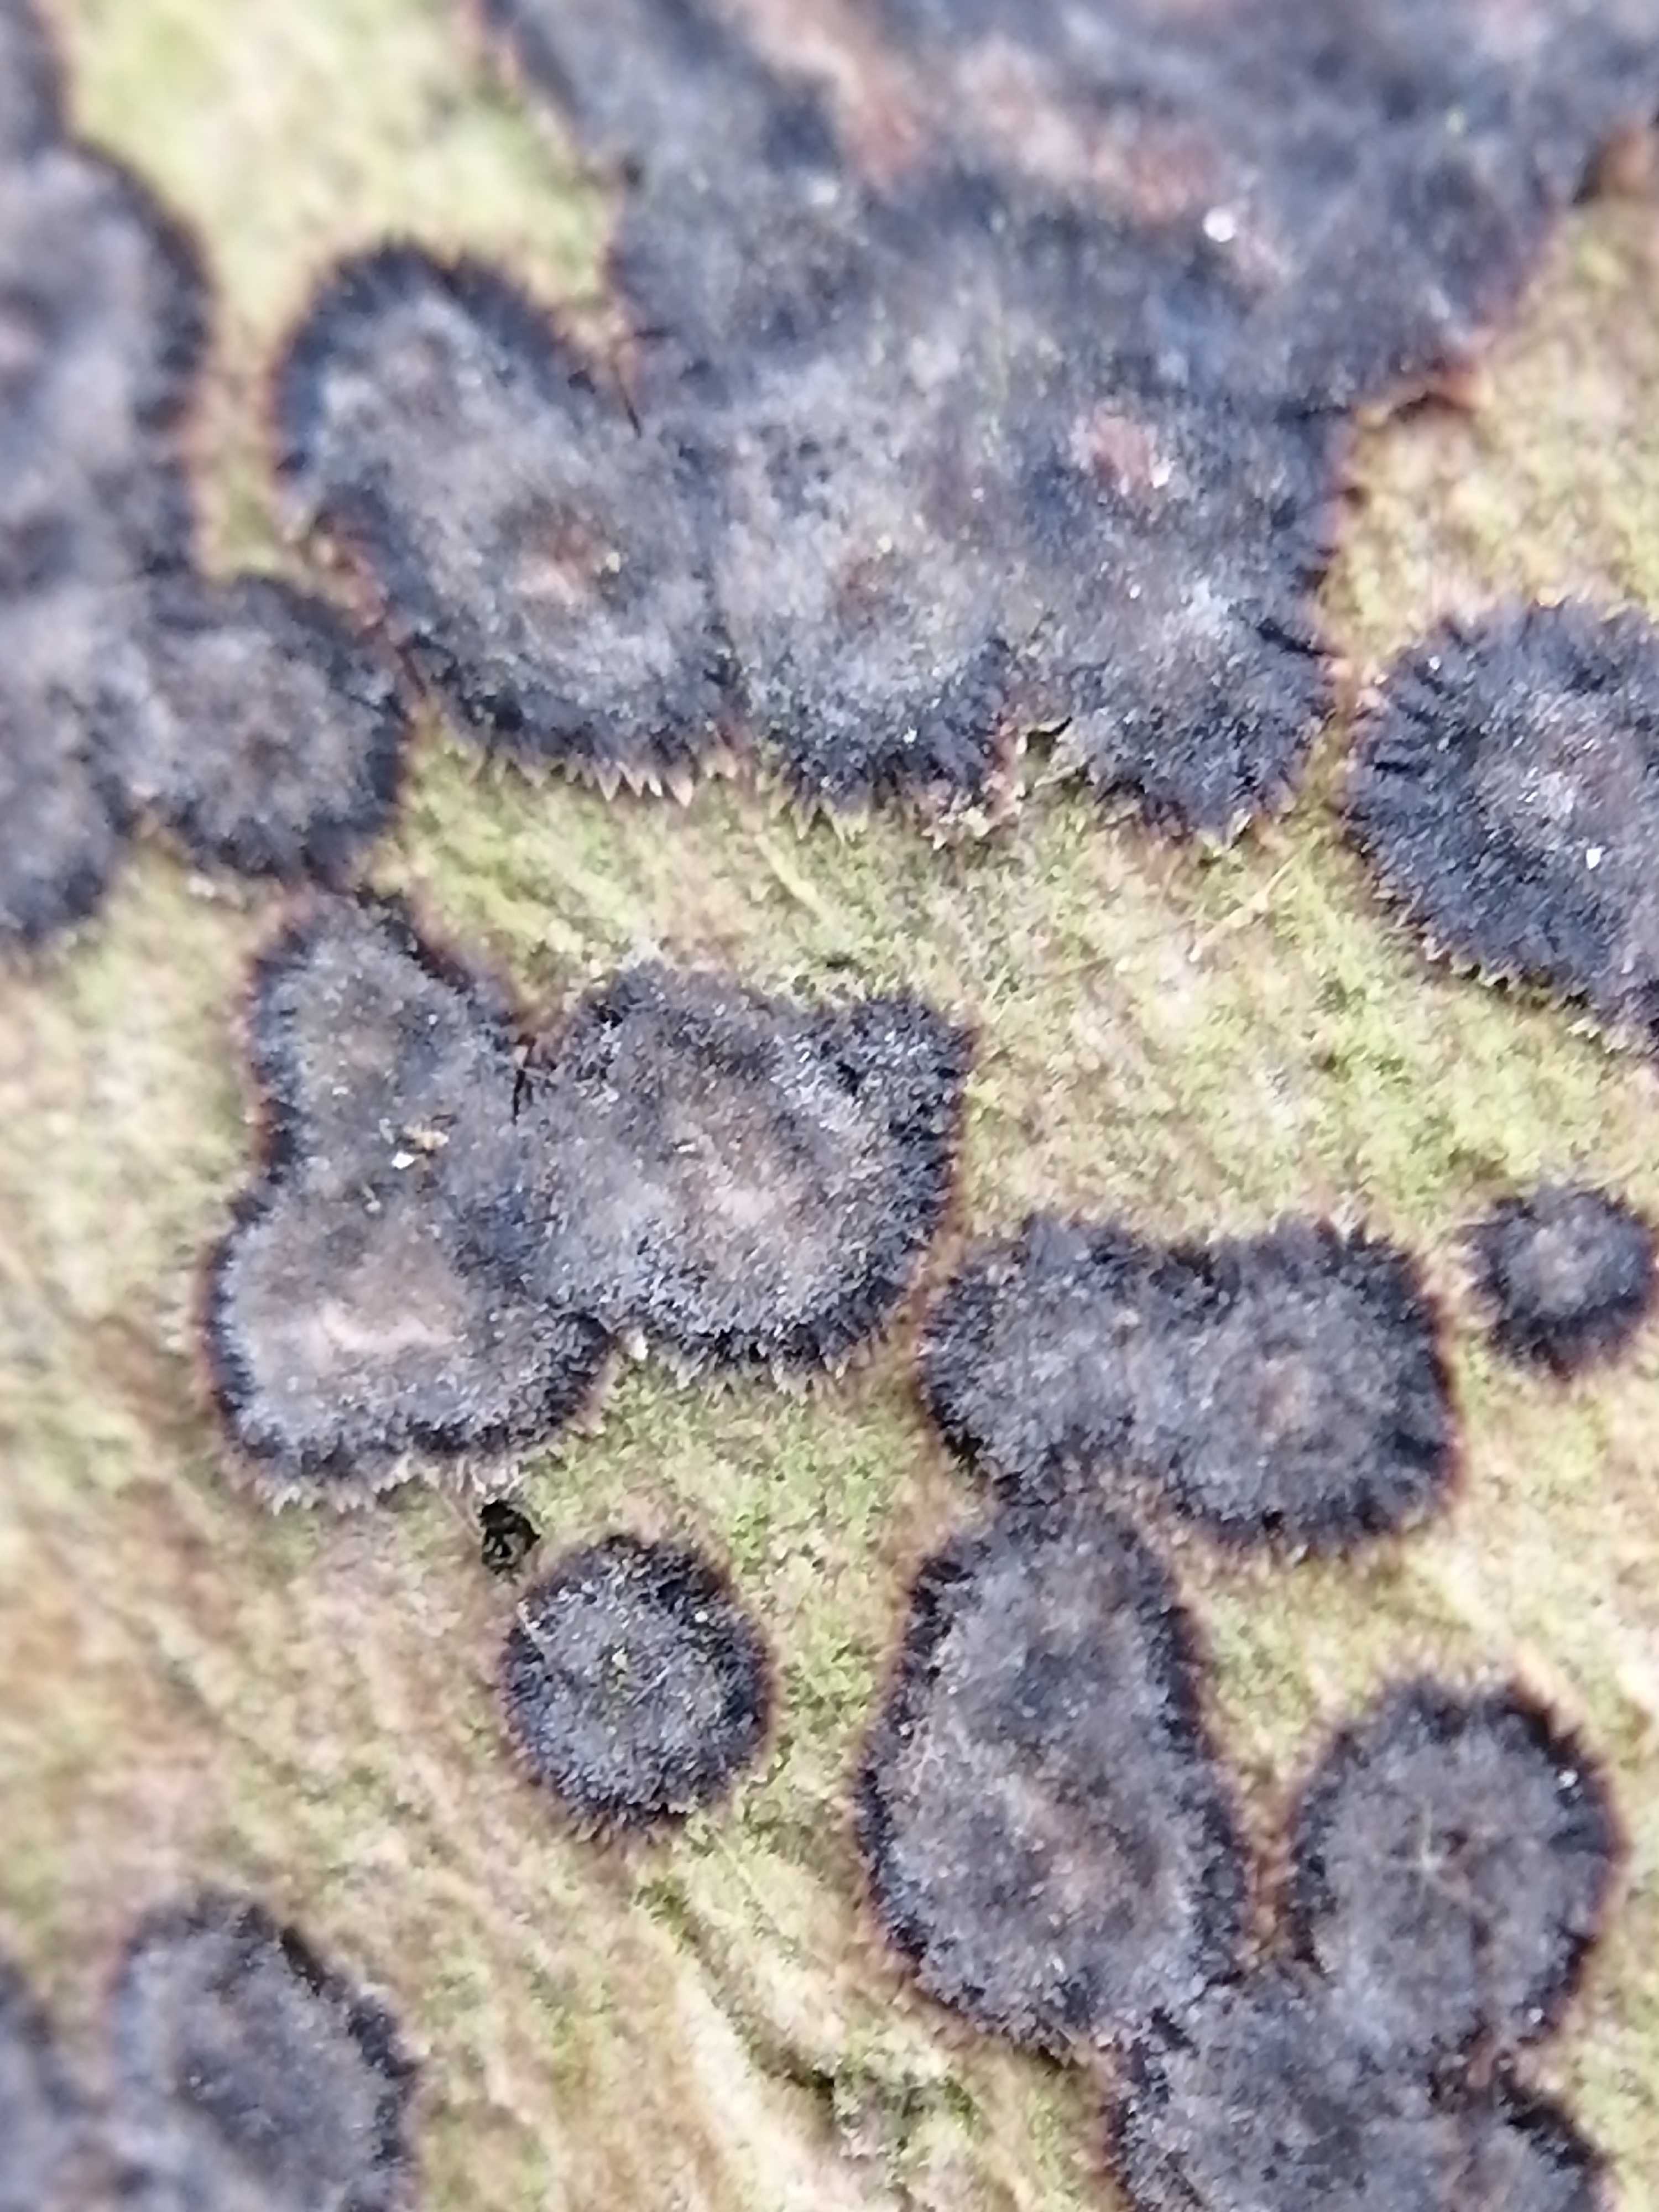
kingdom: Fungi
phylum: Basidiomycota
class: Agaricomycetes
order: Russulales
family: Peniophoraceae
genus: Peniophora
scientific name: Peniophora limitata
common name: mørkrandet voksskind
